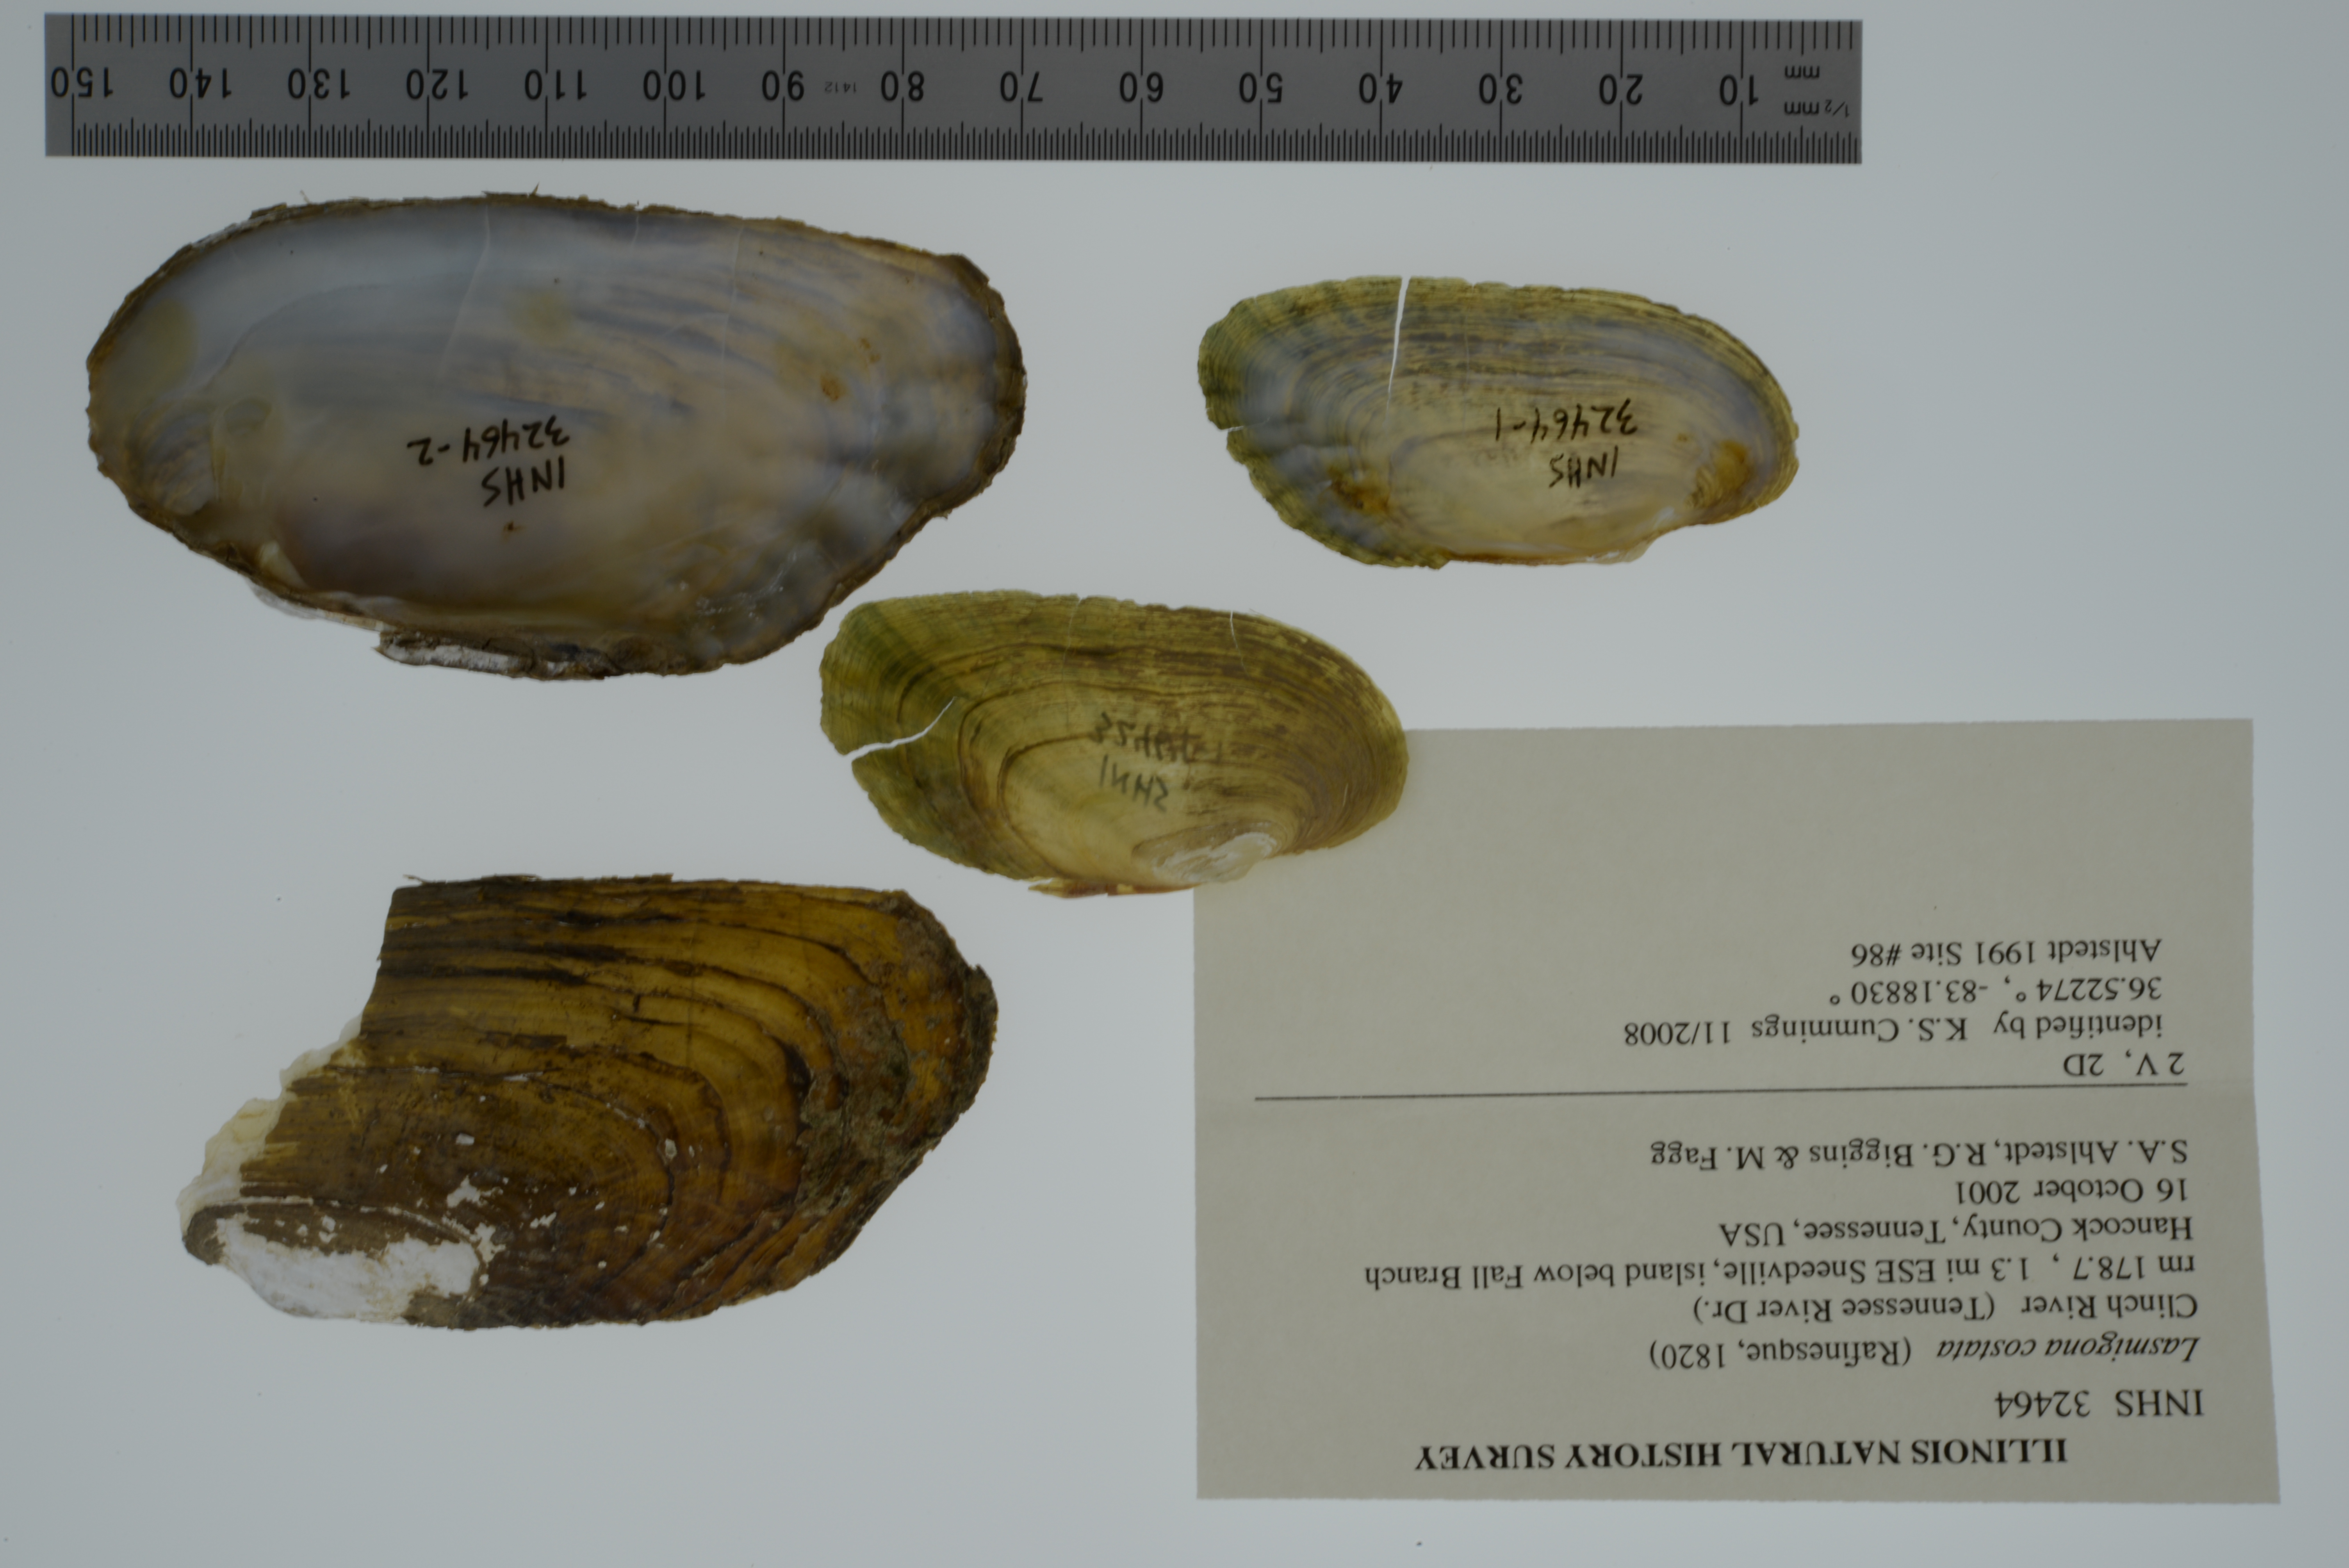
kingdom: Animalia
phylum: Mollusca
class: Bivalvia
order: Unionida
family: Unionidae
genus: Lasmigona
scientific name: Lasmigona costata
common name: Flutedshell
